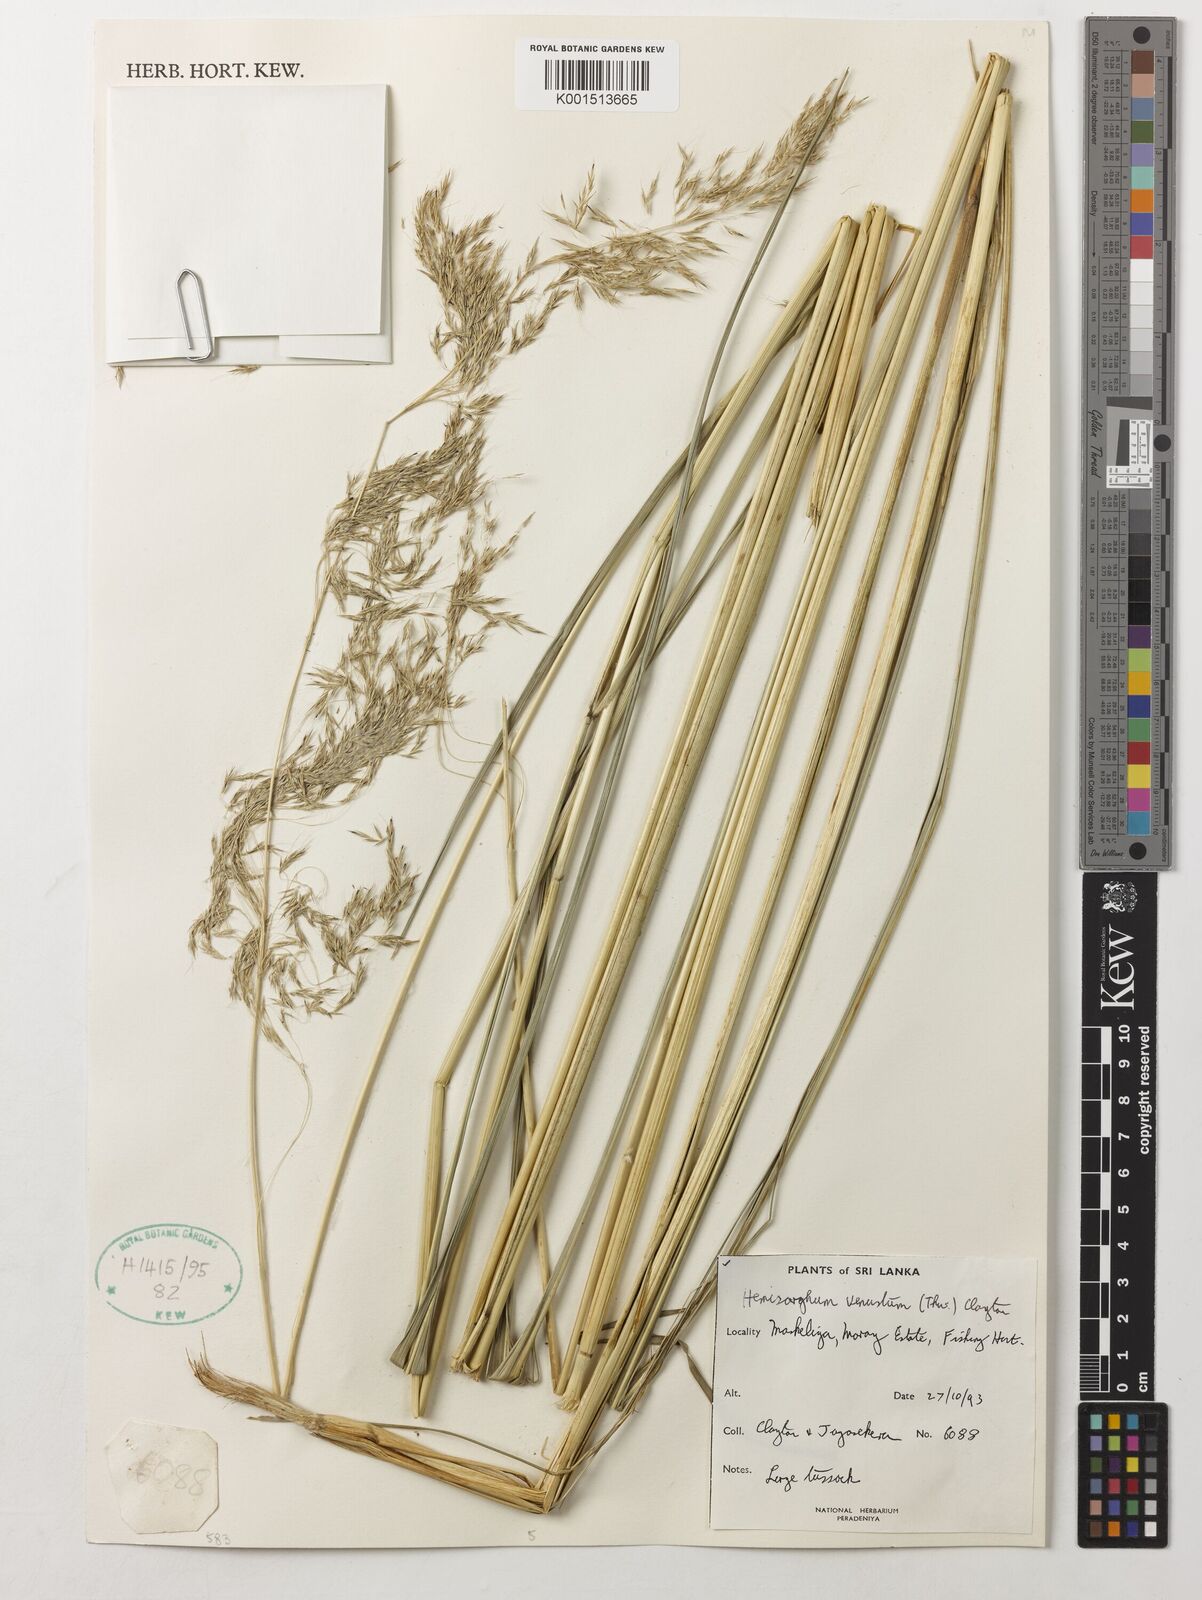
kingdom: Plantae
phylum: Tracheophyta
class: Liliopsida
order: Poales
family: Poaceae
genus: Hemisorghum
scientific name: Hemisorghum venustum
